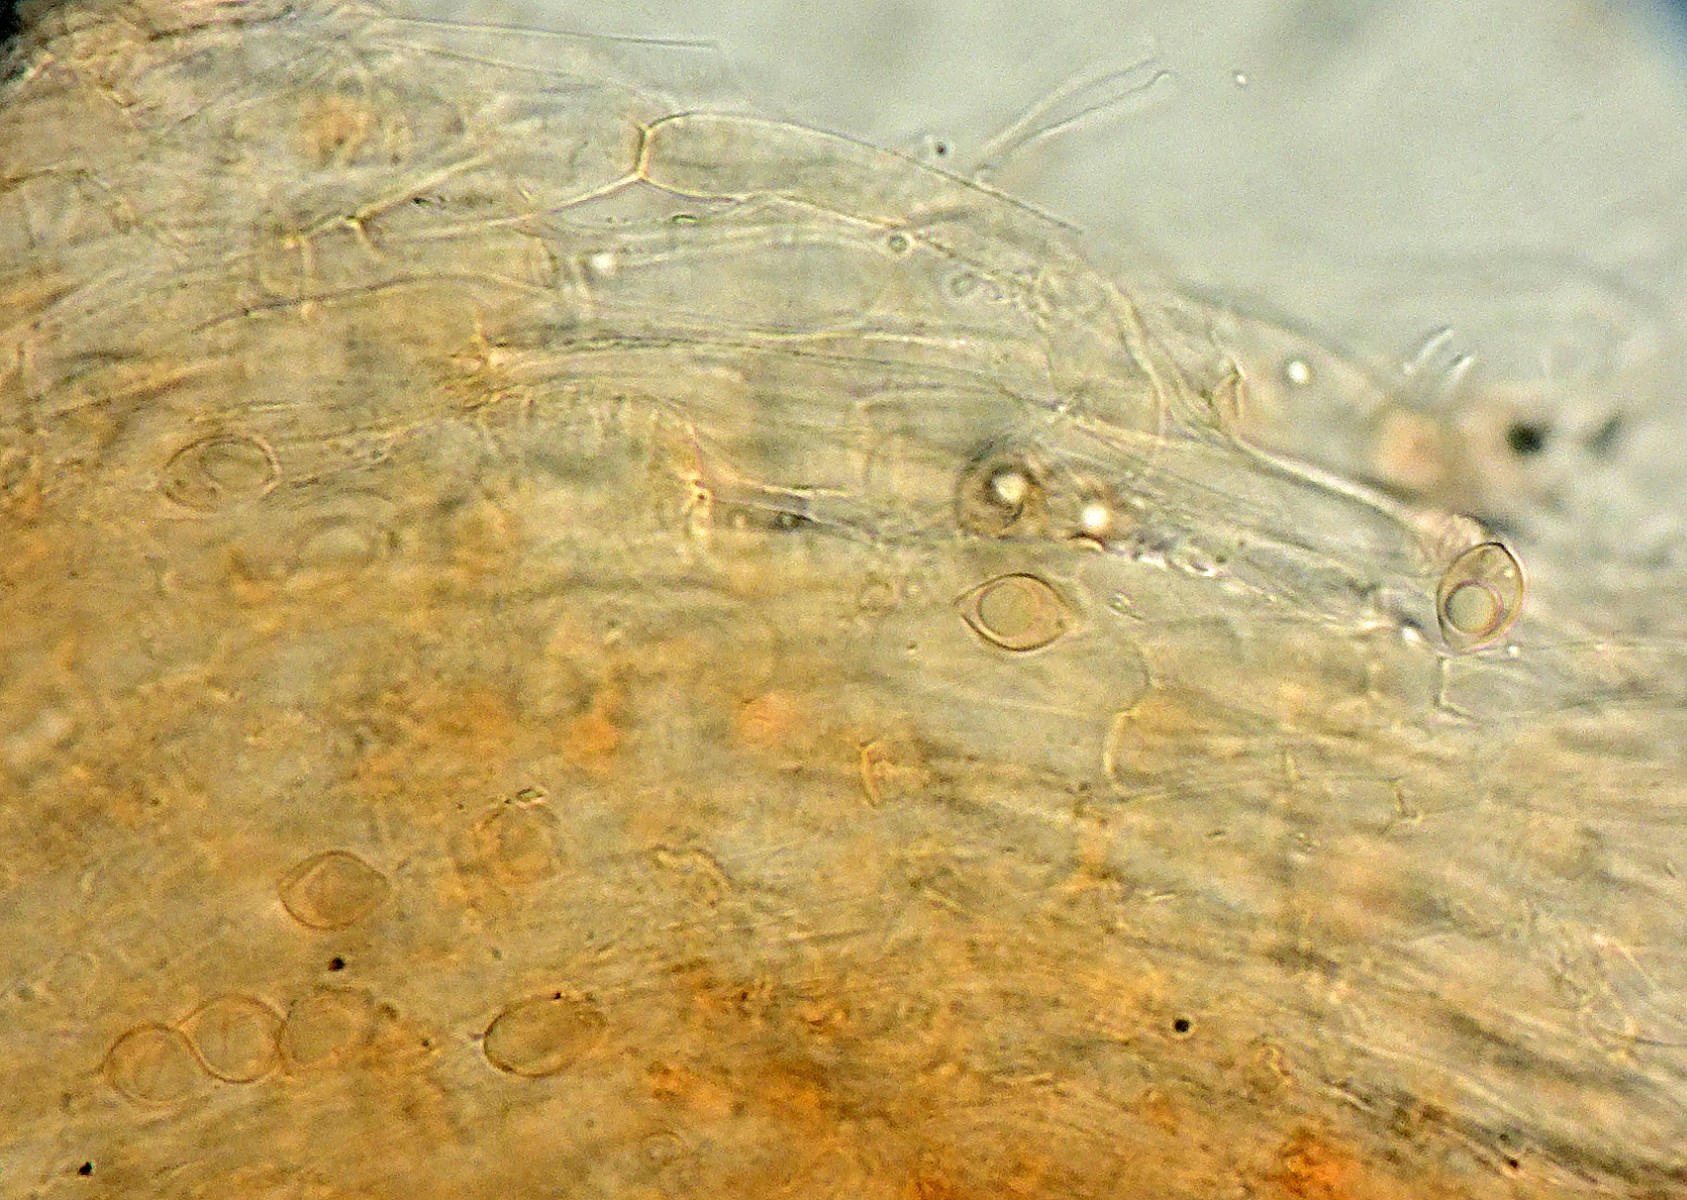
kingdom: Fungi
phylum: Basidiomycota
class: Agaricomycetes
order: Agaricales
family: Tubariaceae
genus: Tubaria
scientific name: Tubaria lilliputiana
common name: dværg-fnughat
